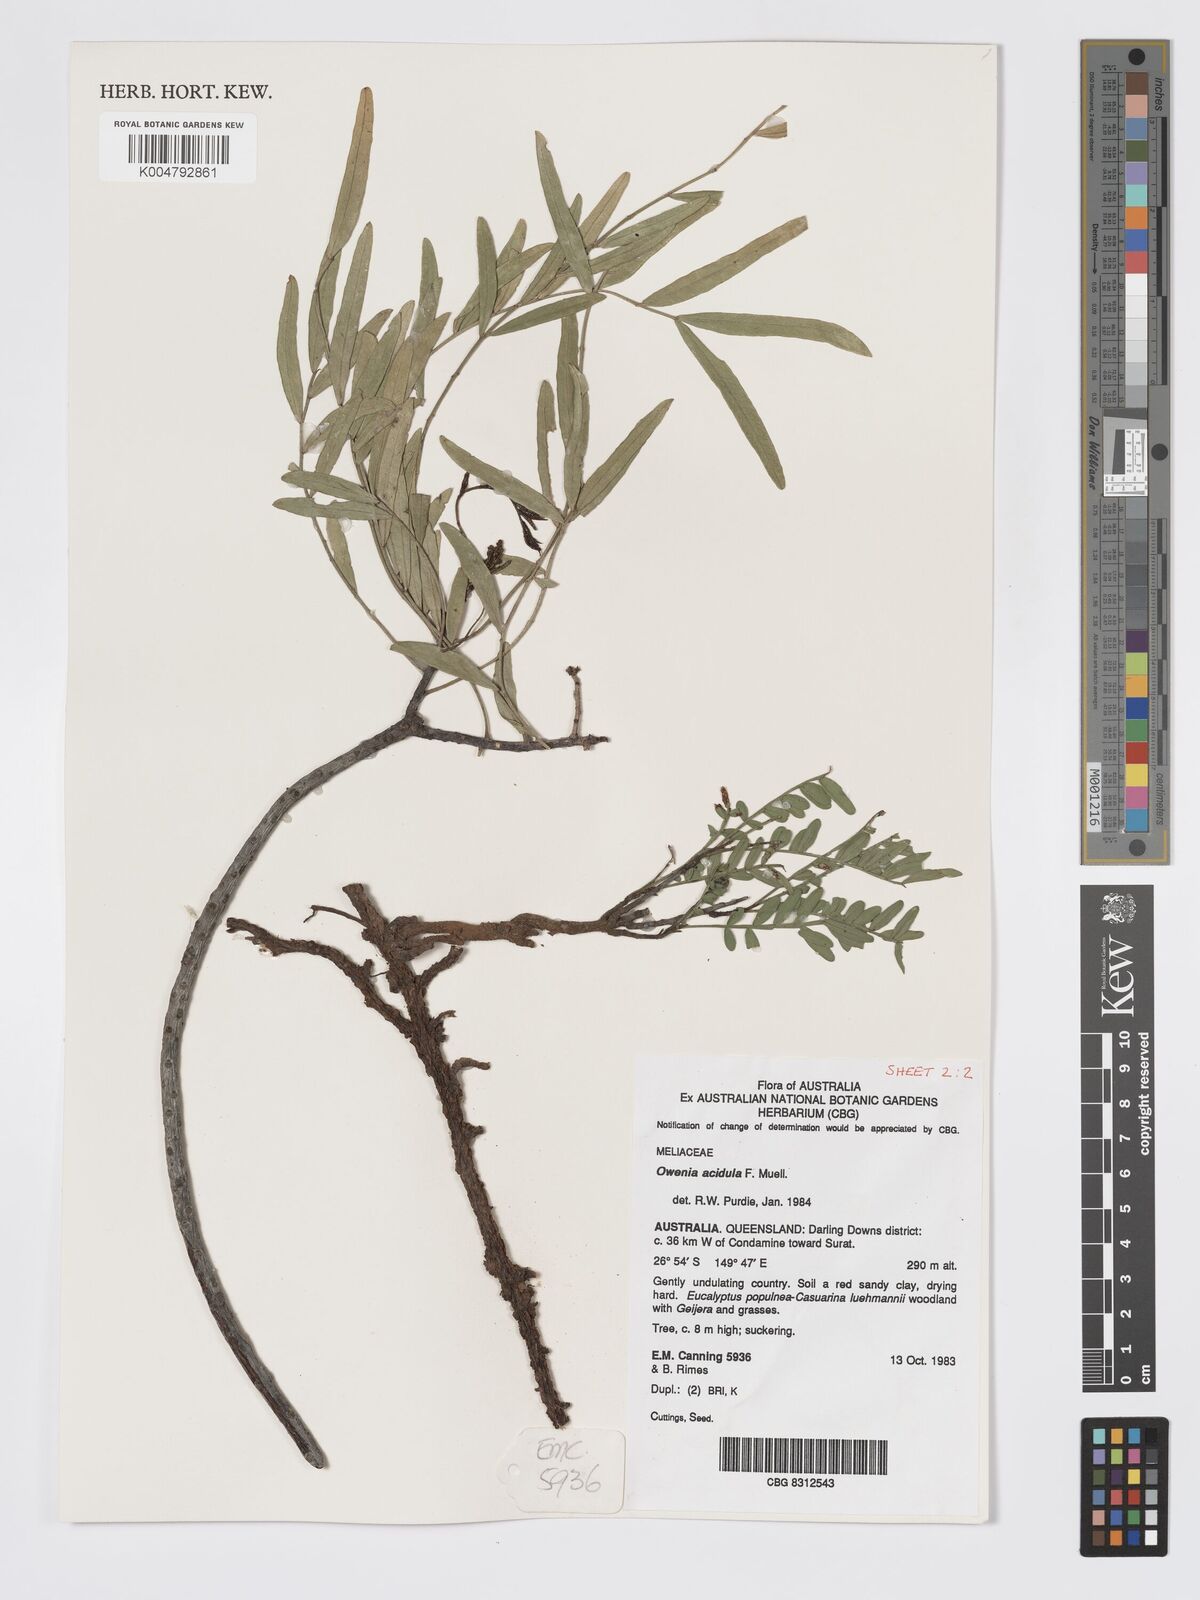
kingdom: Plantae
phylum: Tracheophyta
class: Magnoliopsida
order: Sapindales
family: Meliaceae
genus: Owenia
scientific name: Owenia acidula
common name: Tulipwood
